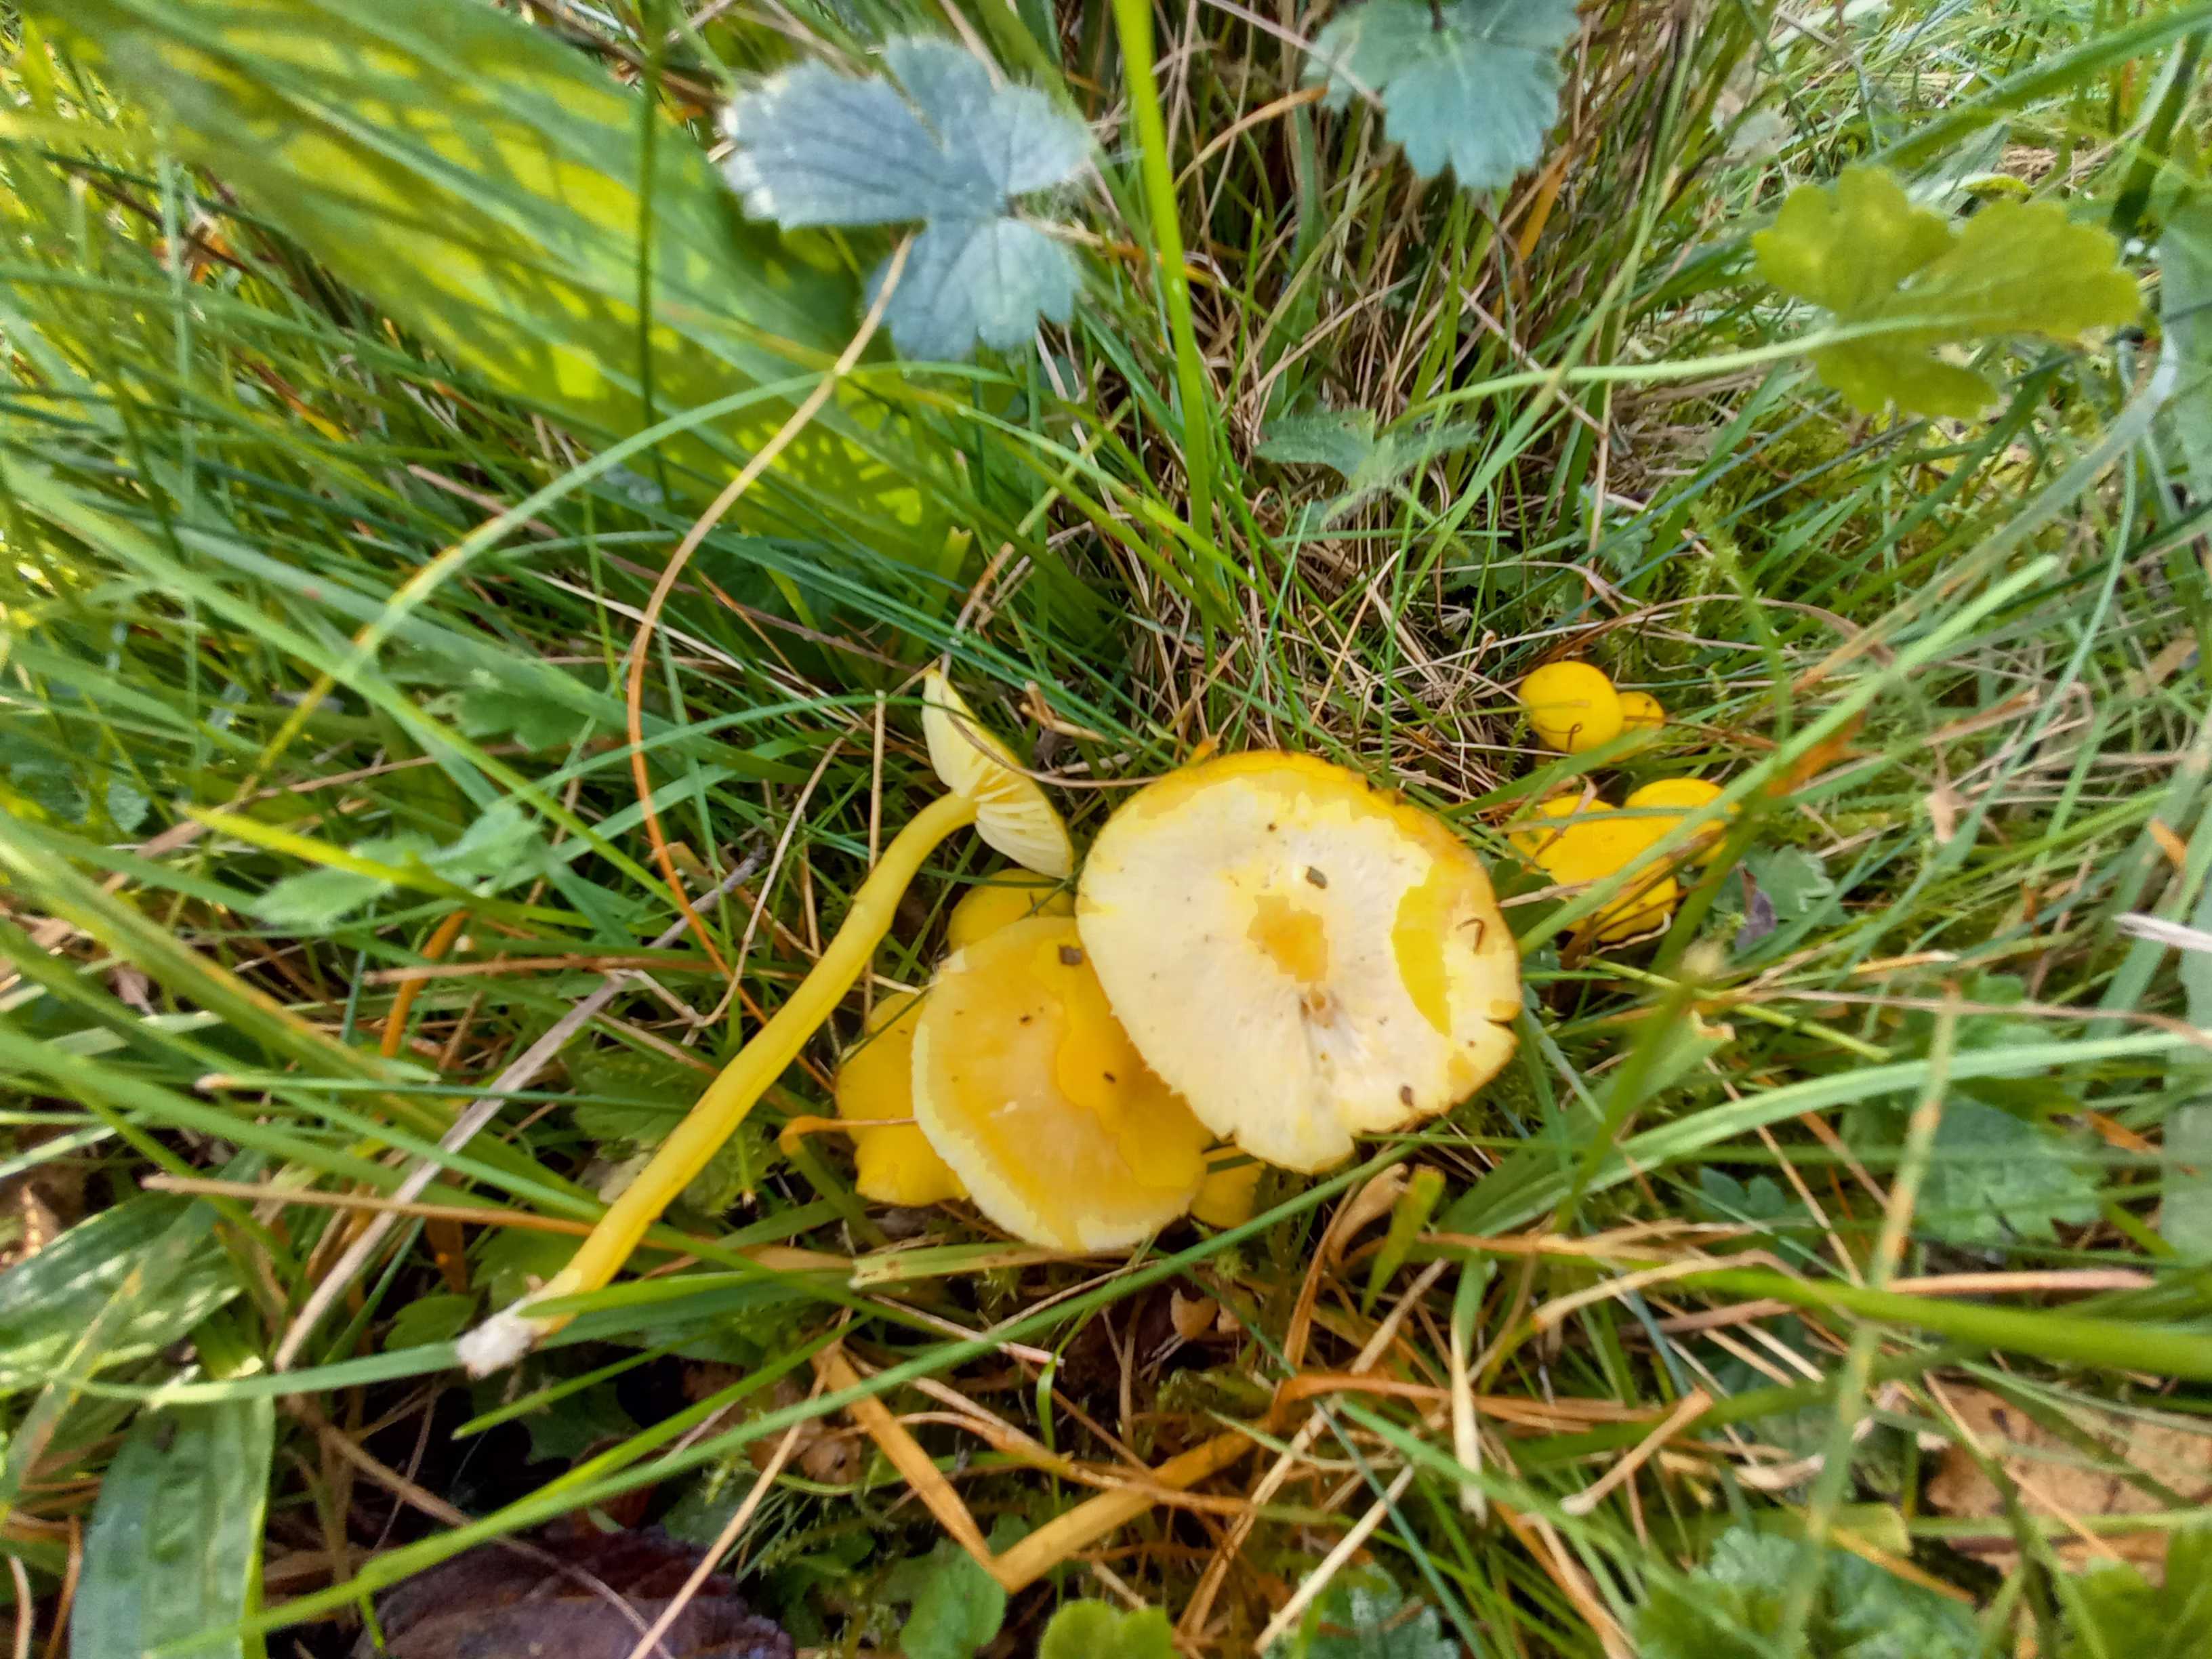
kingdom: Fungi
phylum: Basidiomycota
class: Agaricomycetes
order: Agaricales
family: Hygrophoraceae
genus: Hygrocybe
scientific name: Hygrocybe ceracea
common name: voksgul vokshat
